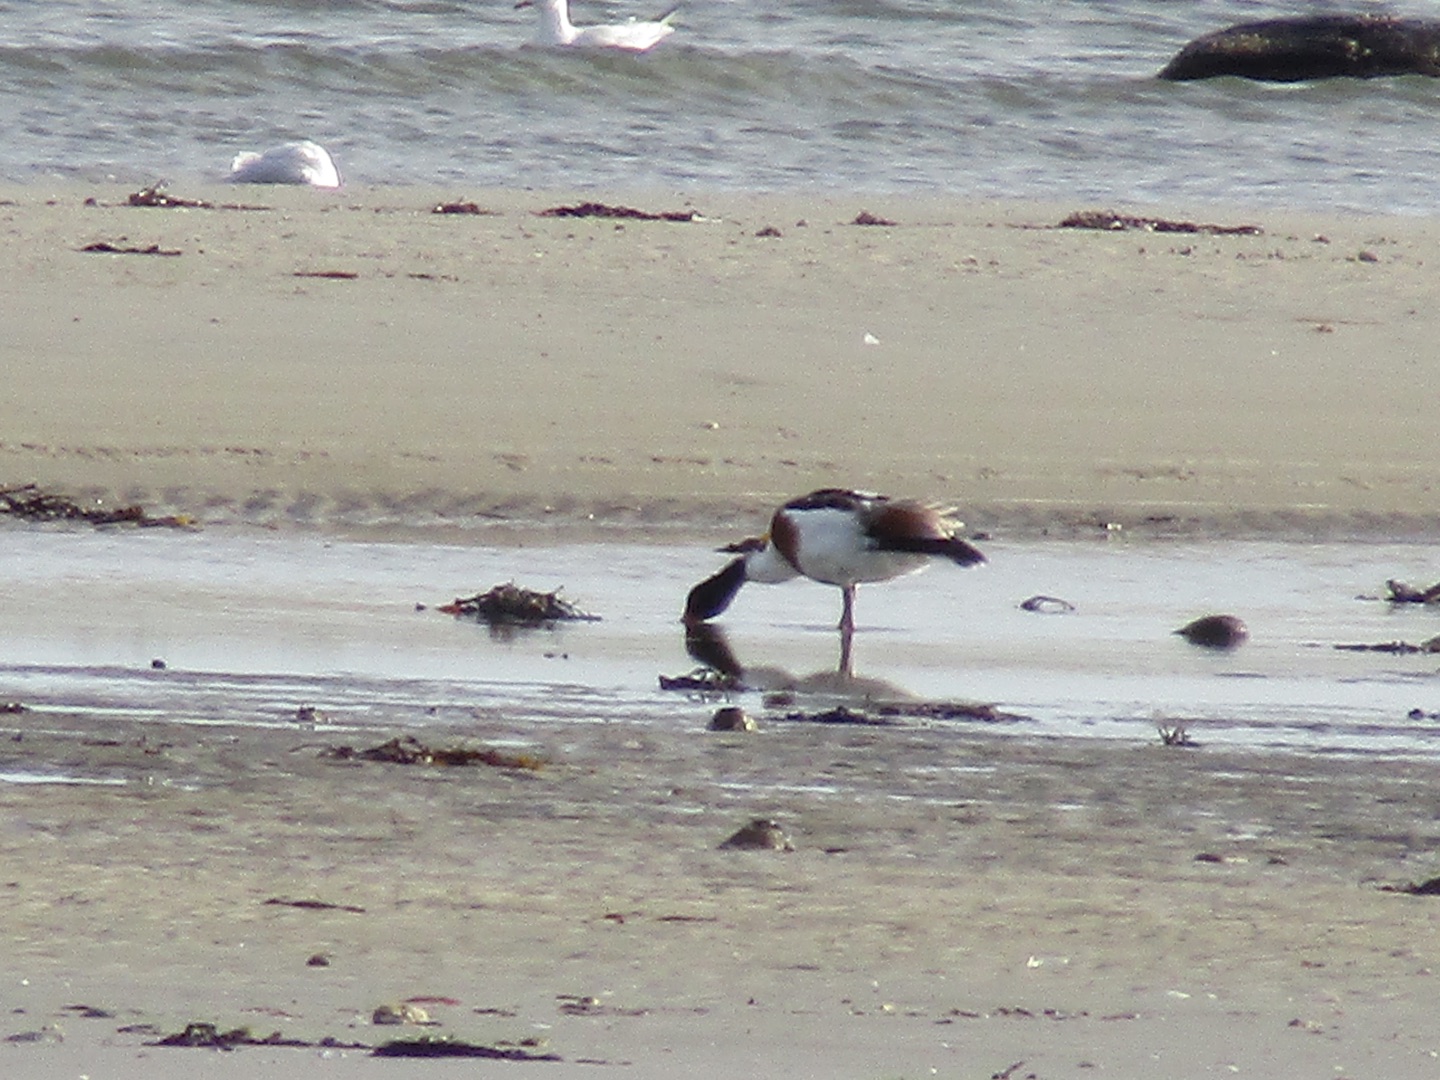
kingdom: Animalia
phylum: Chordata
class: Aves
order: Anseriformes
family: Anatidae
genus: Tadorna
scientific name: Tadorna tadorna
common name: Gravand
